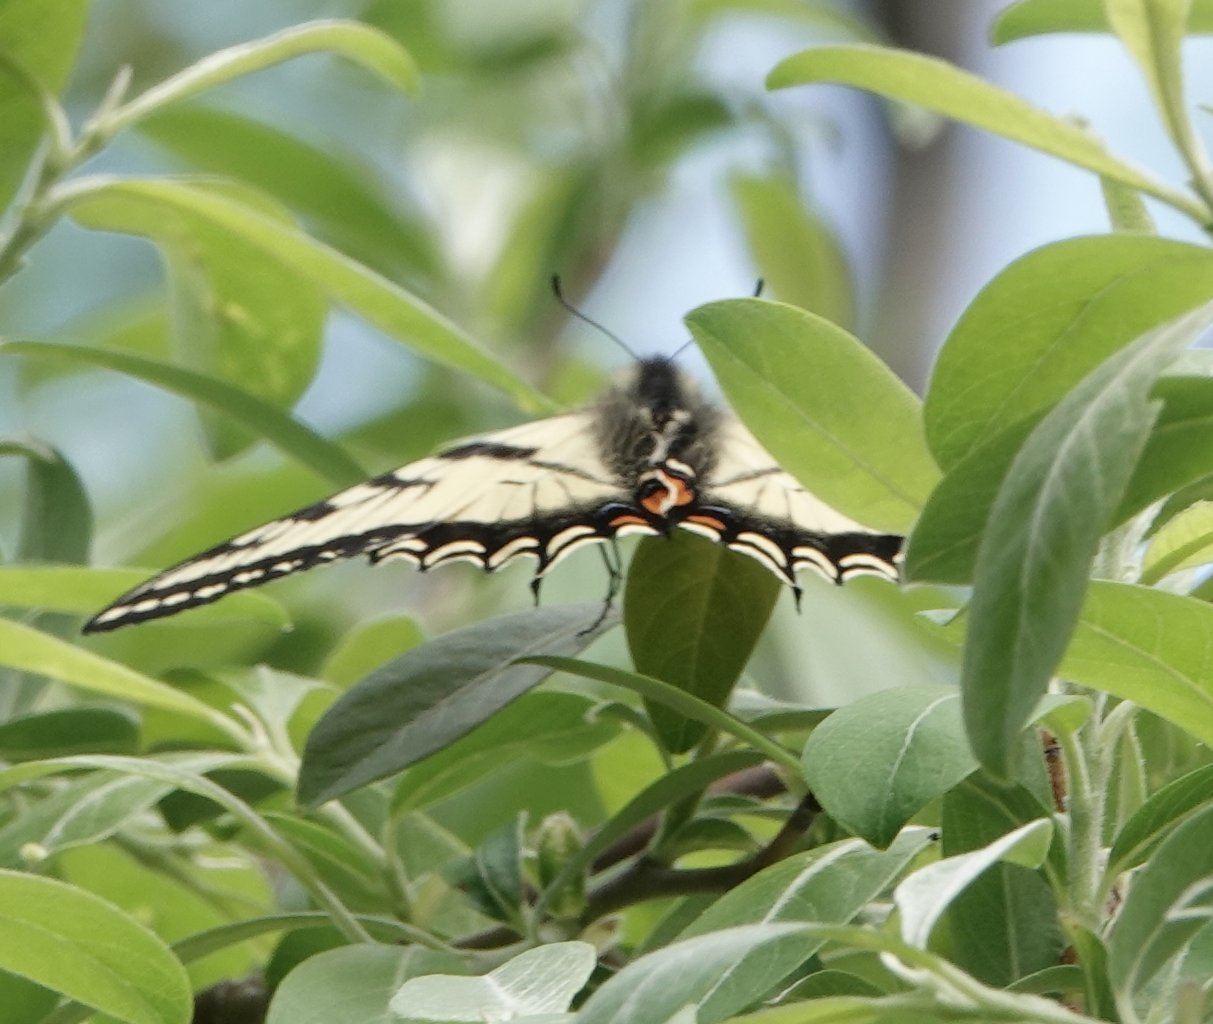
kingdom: Animalia
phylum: Arthropoda
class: Insecta
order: Lepidoptera
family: Papilionidae
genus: Pterourus
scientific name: Pterourus canadensis
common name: Canadian Tiger Swallowtail
